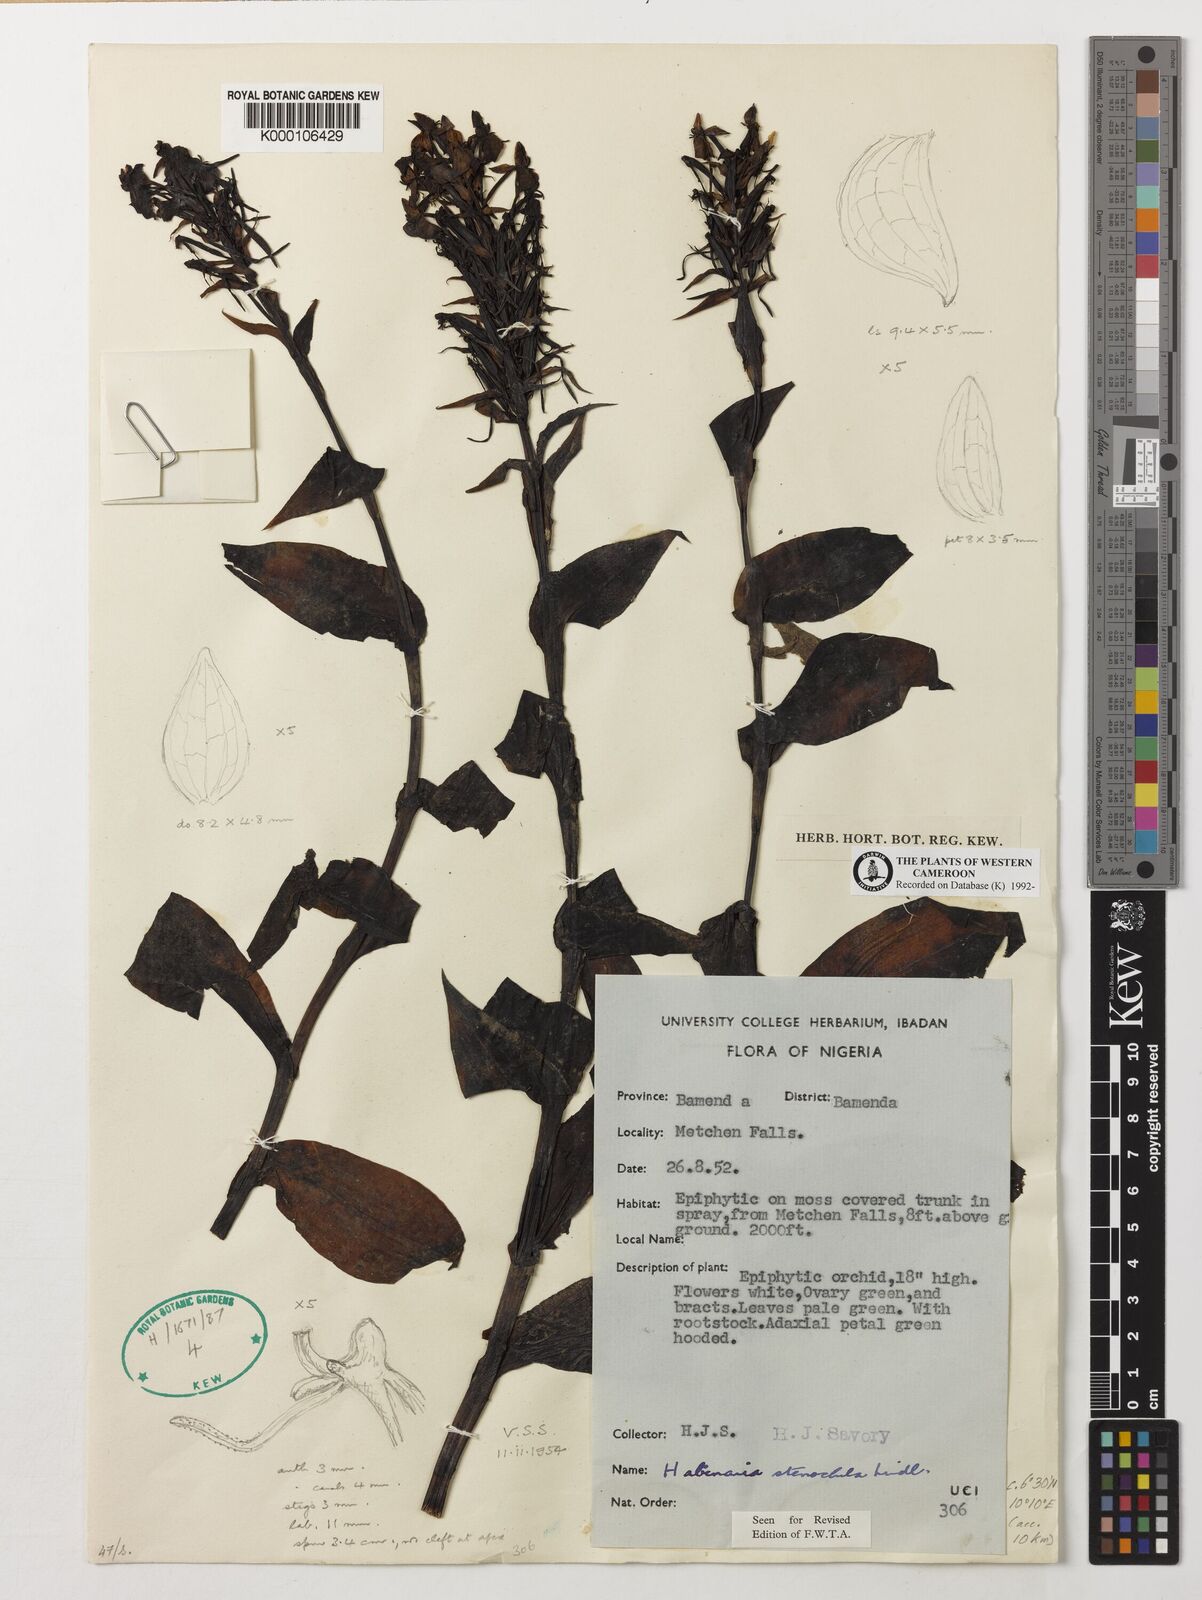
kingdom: Plantae
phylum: Tracheophyta
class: Liliopsida
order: Asparagales
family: Orchidaceae
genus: Habenaria
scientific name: Habenaria stenochila
